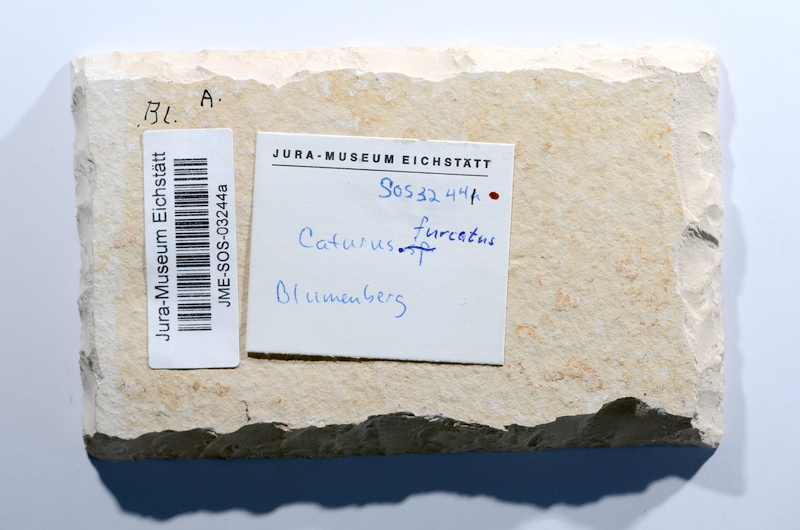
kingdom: Animalia
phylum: Chordata
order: Amiiformes
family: Caturidae
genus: Caturus
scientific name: Caturus furcatus
